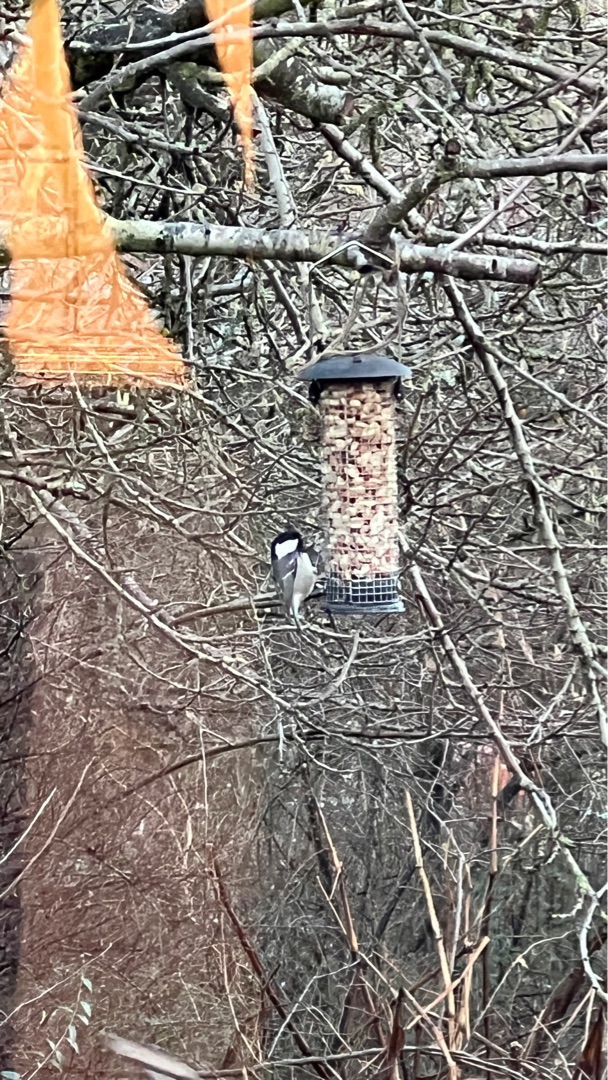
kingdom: Animalia
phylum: Chordata
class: Aves
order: Passeriformes
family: Paridae
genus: Periparus
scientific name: Periparus ater
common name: Sortmejse
